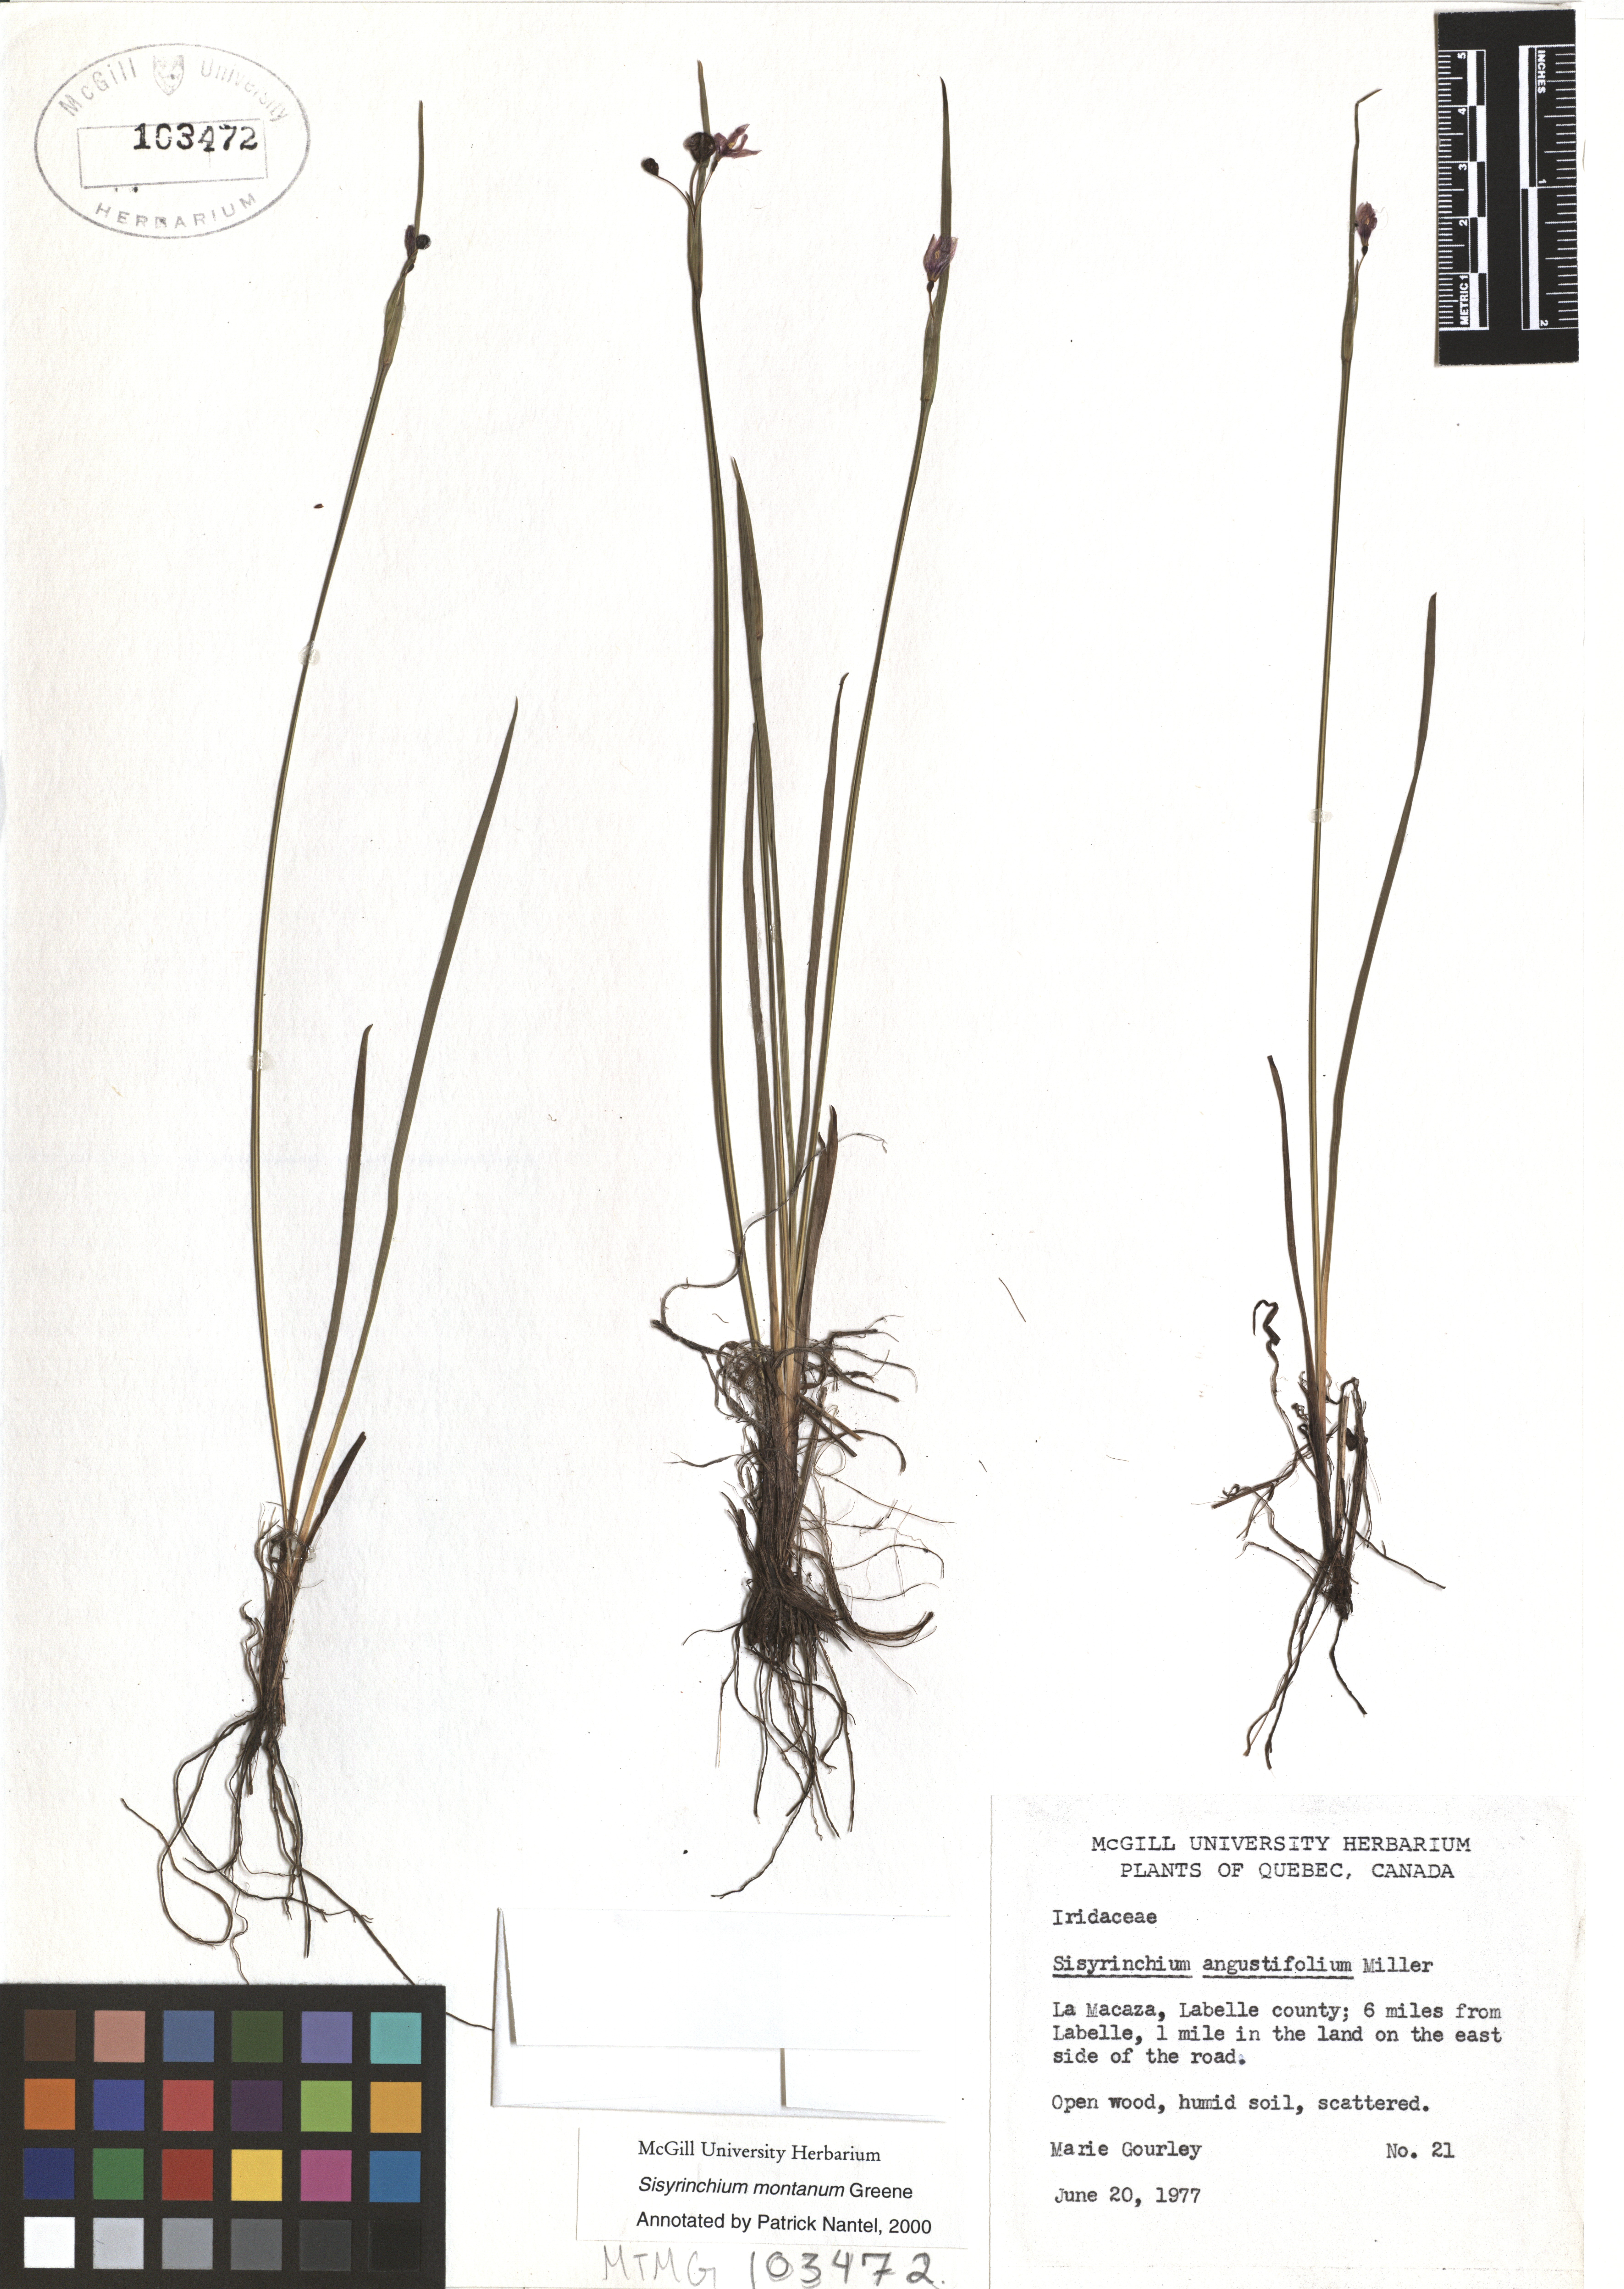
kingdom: Plantae
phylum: Tracheophyta
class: Liliopsida
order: Asparagales
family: Iridaceae
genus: Sisyrinchium
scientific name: Sisyrinchium montanum
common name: American blue-eyed-grass
